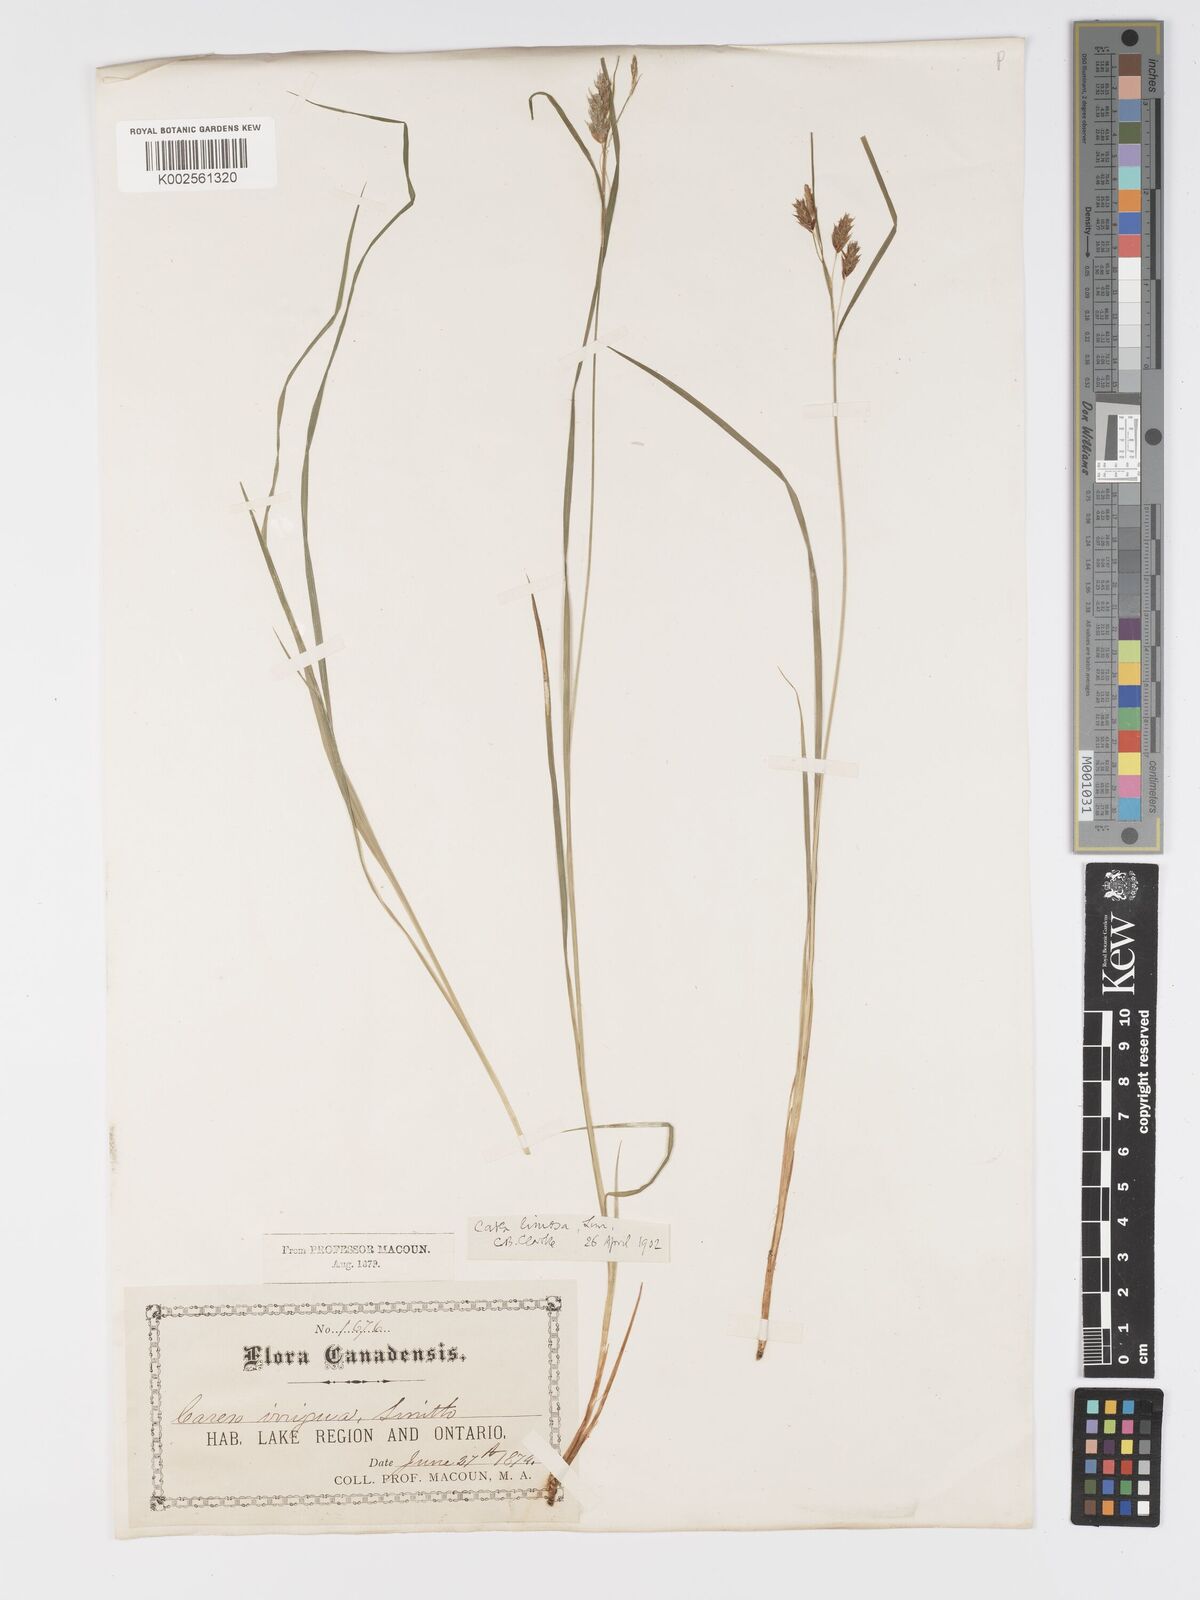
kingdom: Plantae
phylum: Tracheophyta
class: Liliopsida
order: Poales
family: Cyperaceae
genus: Carex
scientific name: Carex magellanica
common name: Bog sedge
